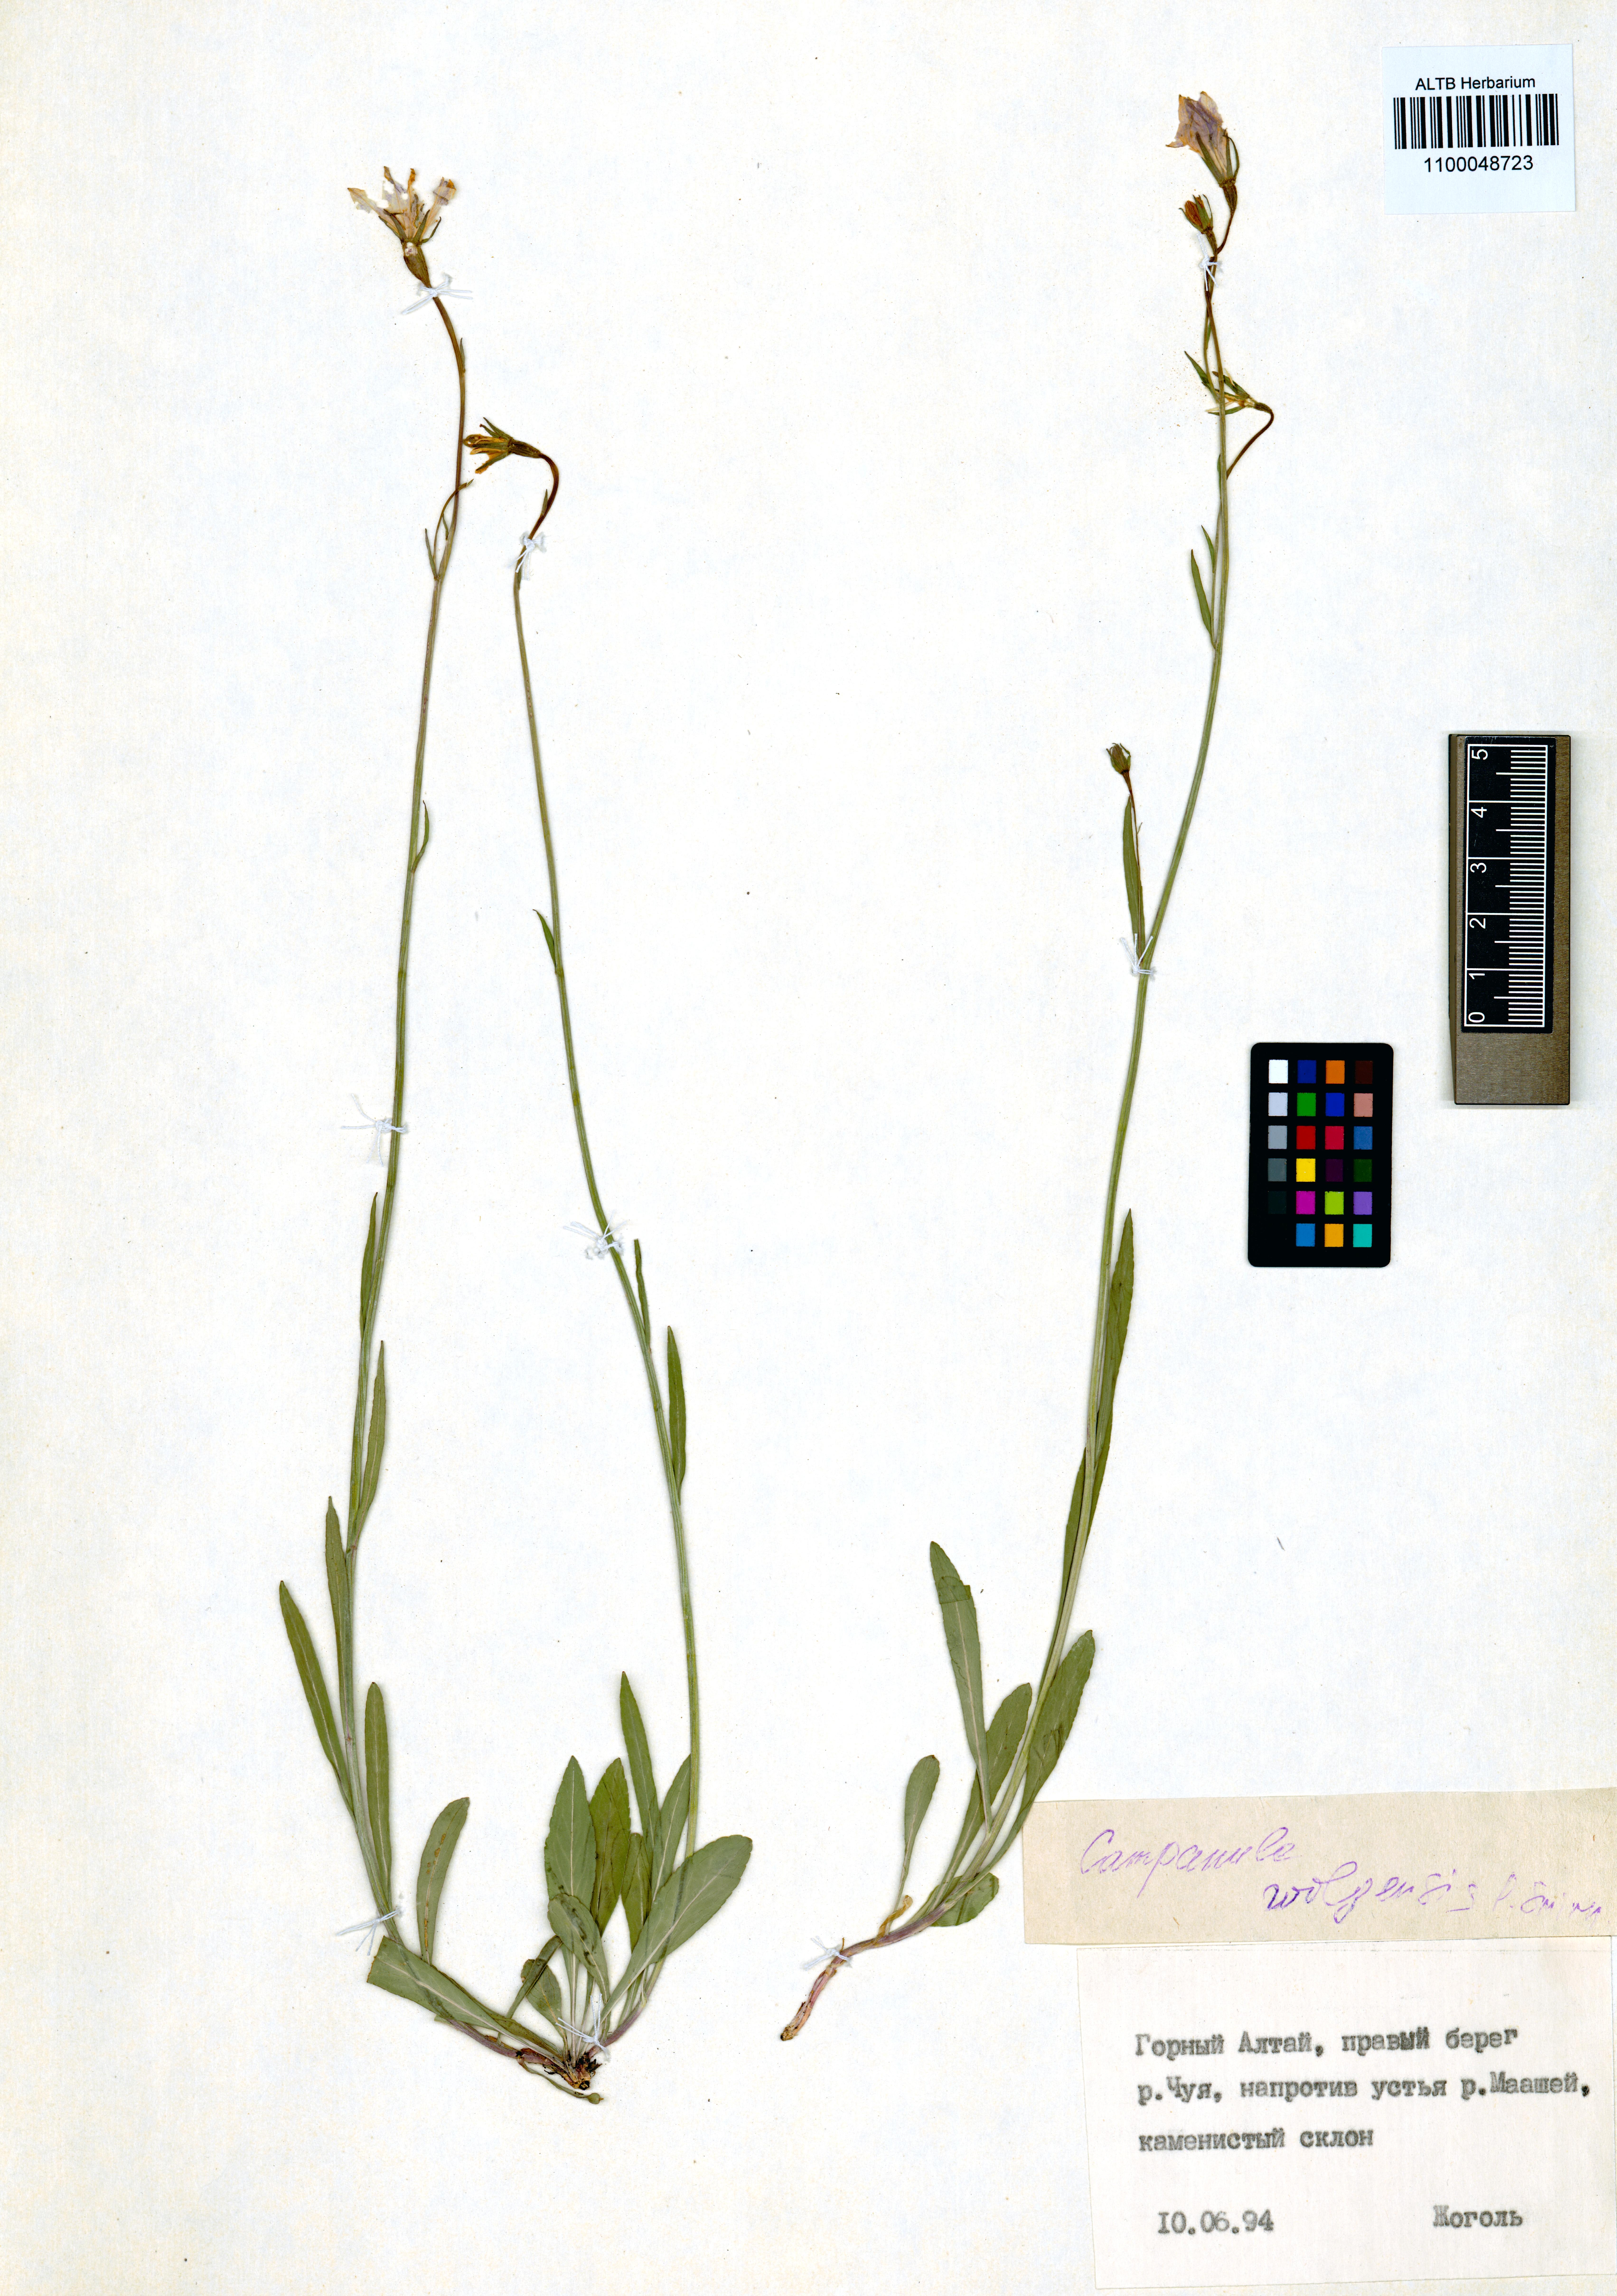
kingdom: Plantae
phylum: Tracheophyta
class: Magnoliopsida
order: Asterales
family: Campanulaceae
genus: Campanula
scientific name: Campanula stevenii
